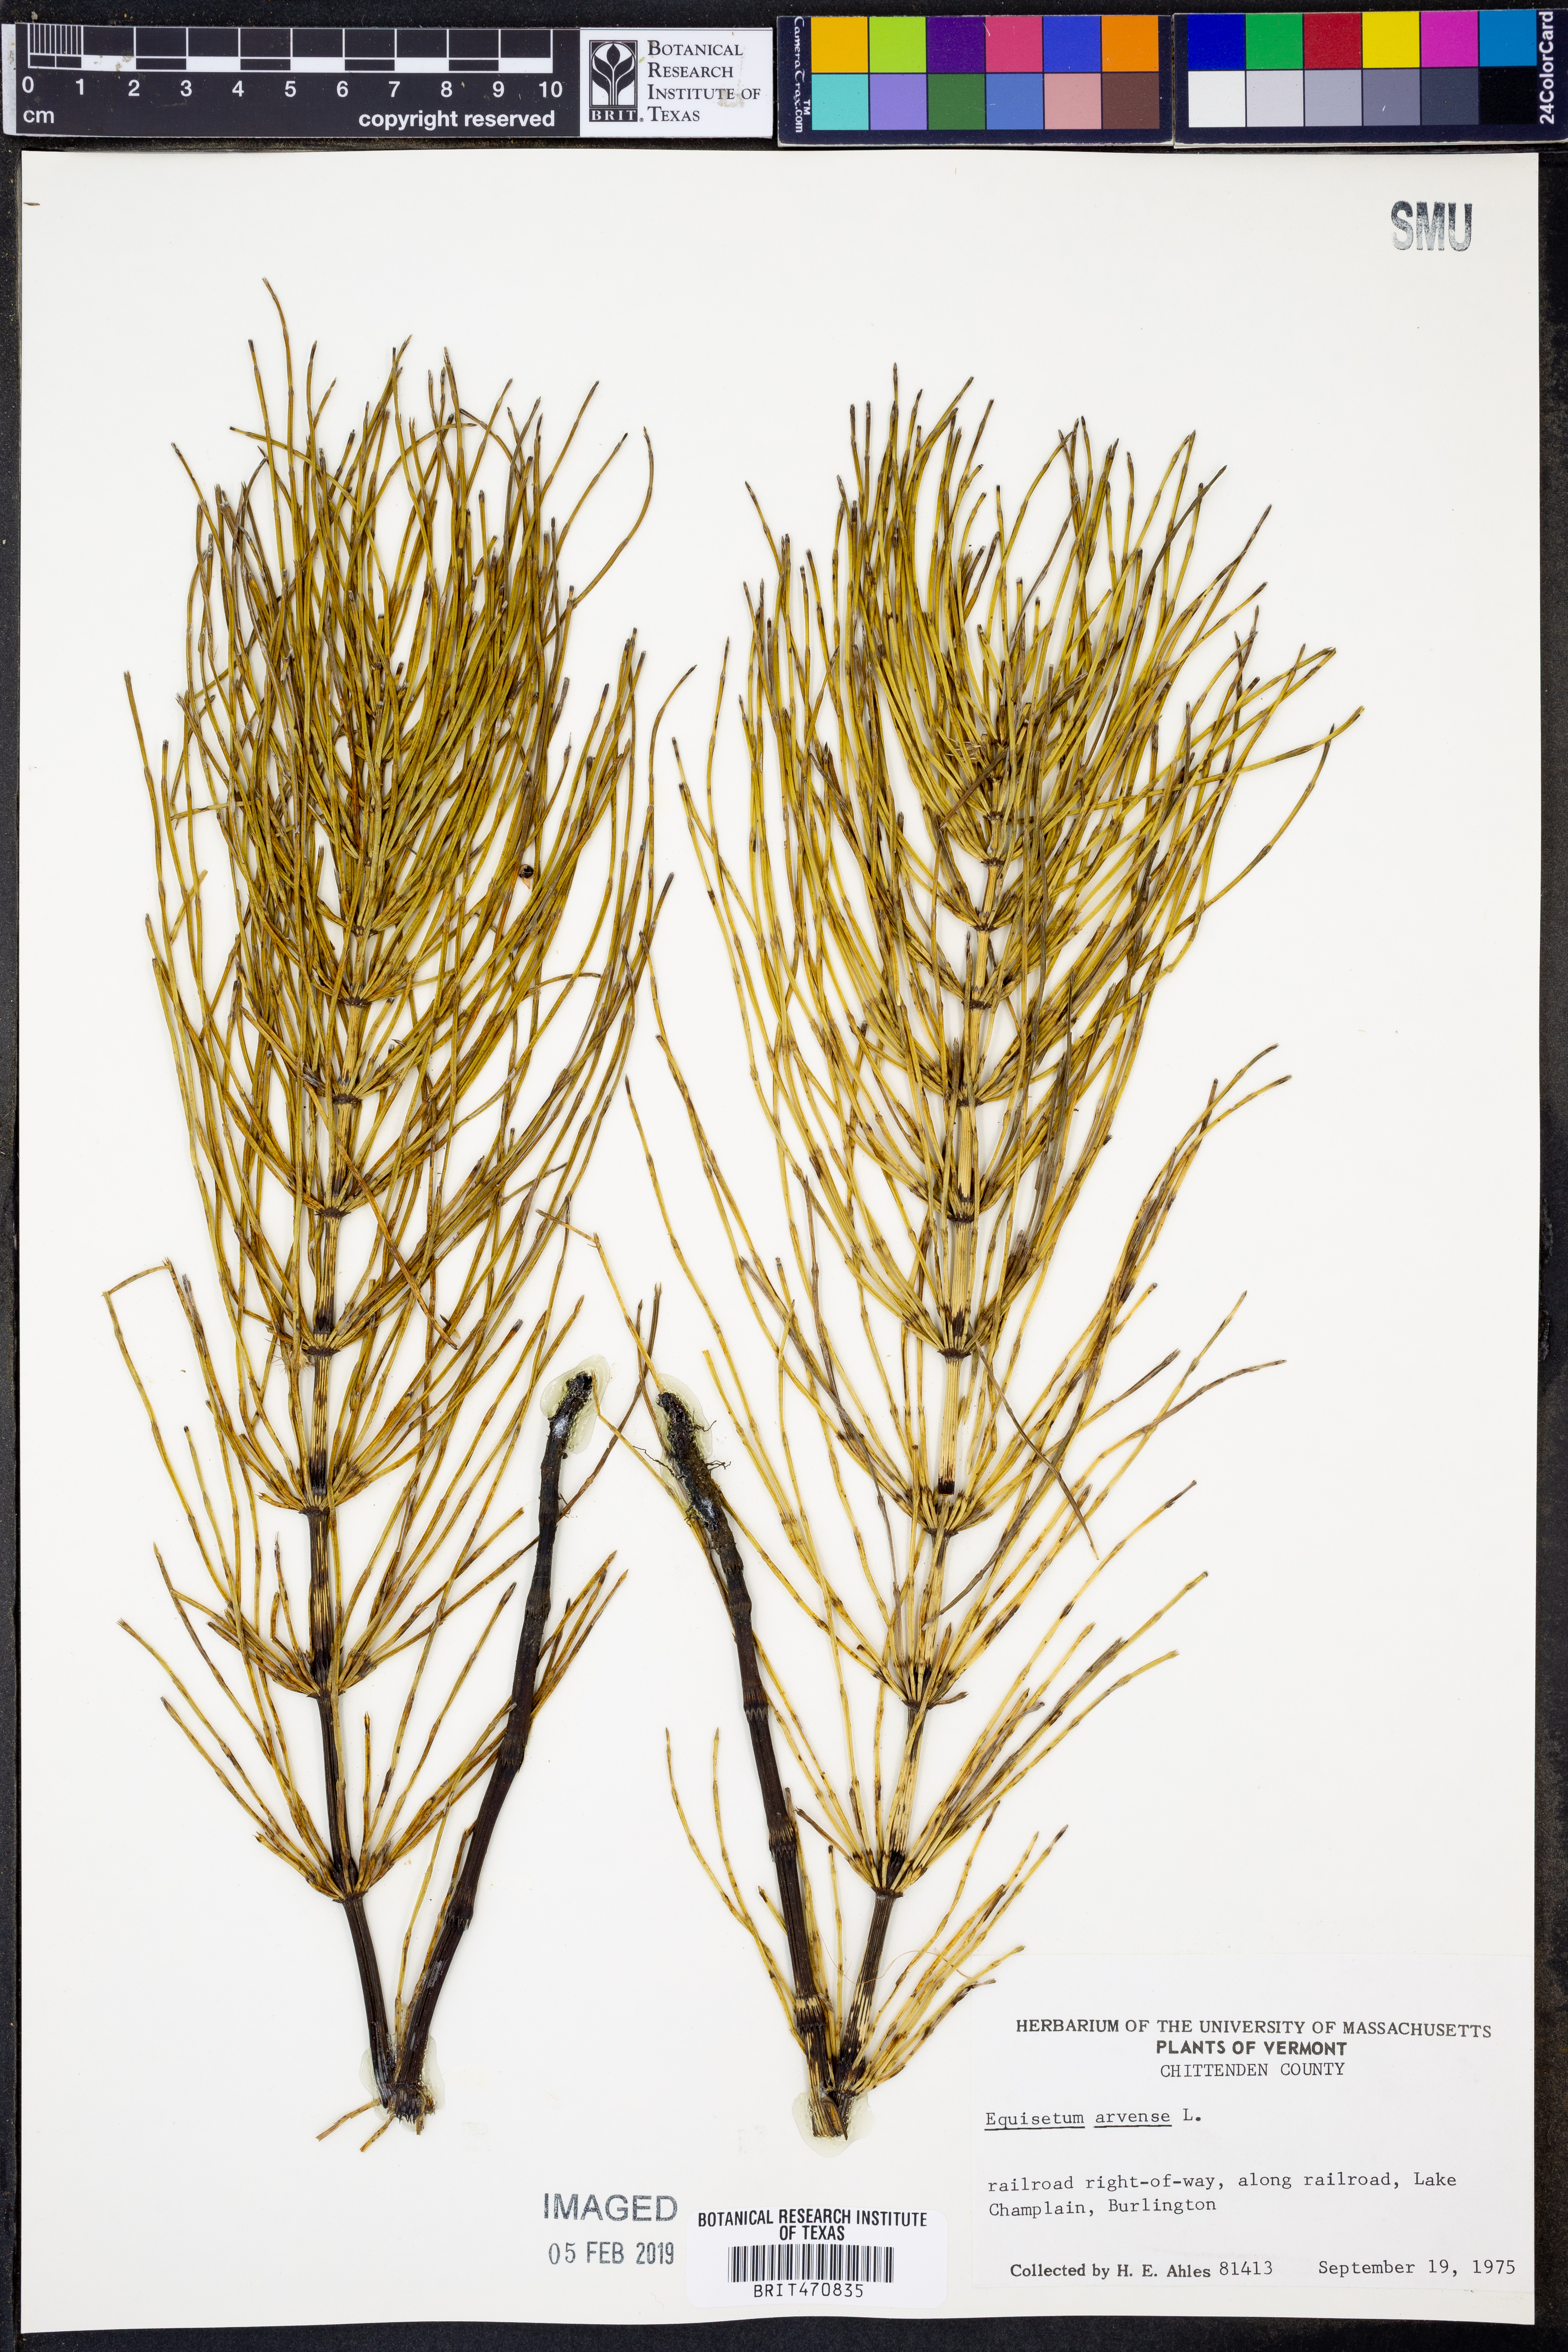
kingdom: Plantae
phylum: Tracheophyta
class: Polypodiopsida
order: Equisetales
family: Equisetaceae
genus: Equisetum
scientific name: Equisetum arvense
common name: Field horsetail
